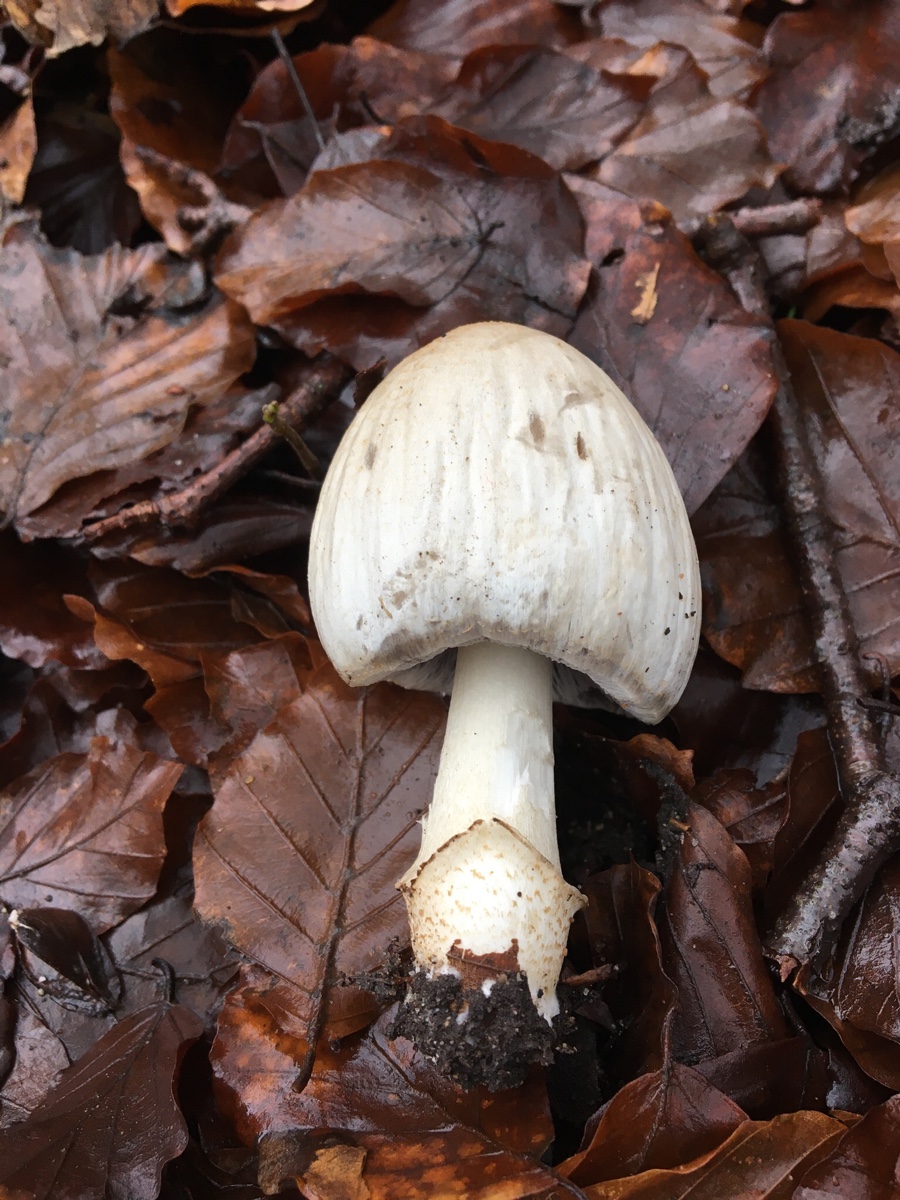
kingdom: Fungi
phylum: Basidiomycota
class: Agaricomycetes
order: Agaricales
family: Psathyrellaceae
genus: Coprinopsis
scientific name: Coprinopsis atramentaria
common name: almindelig blækhat
